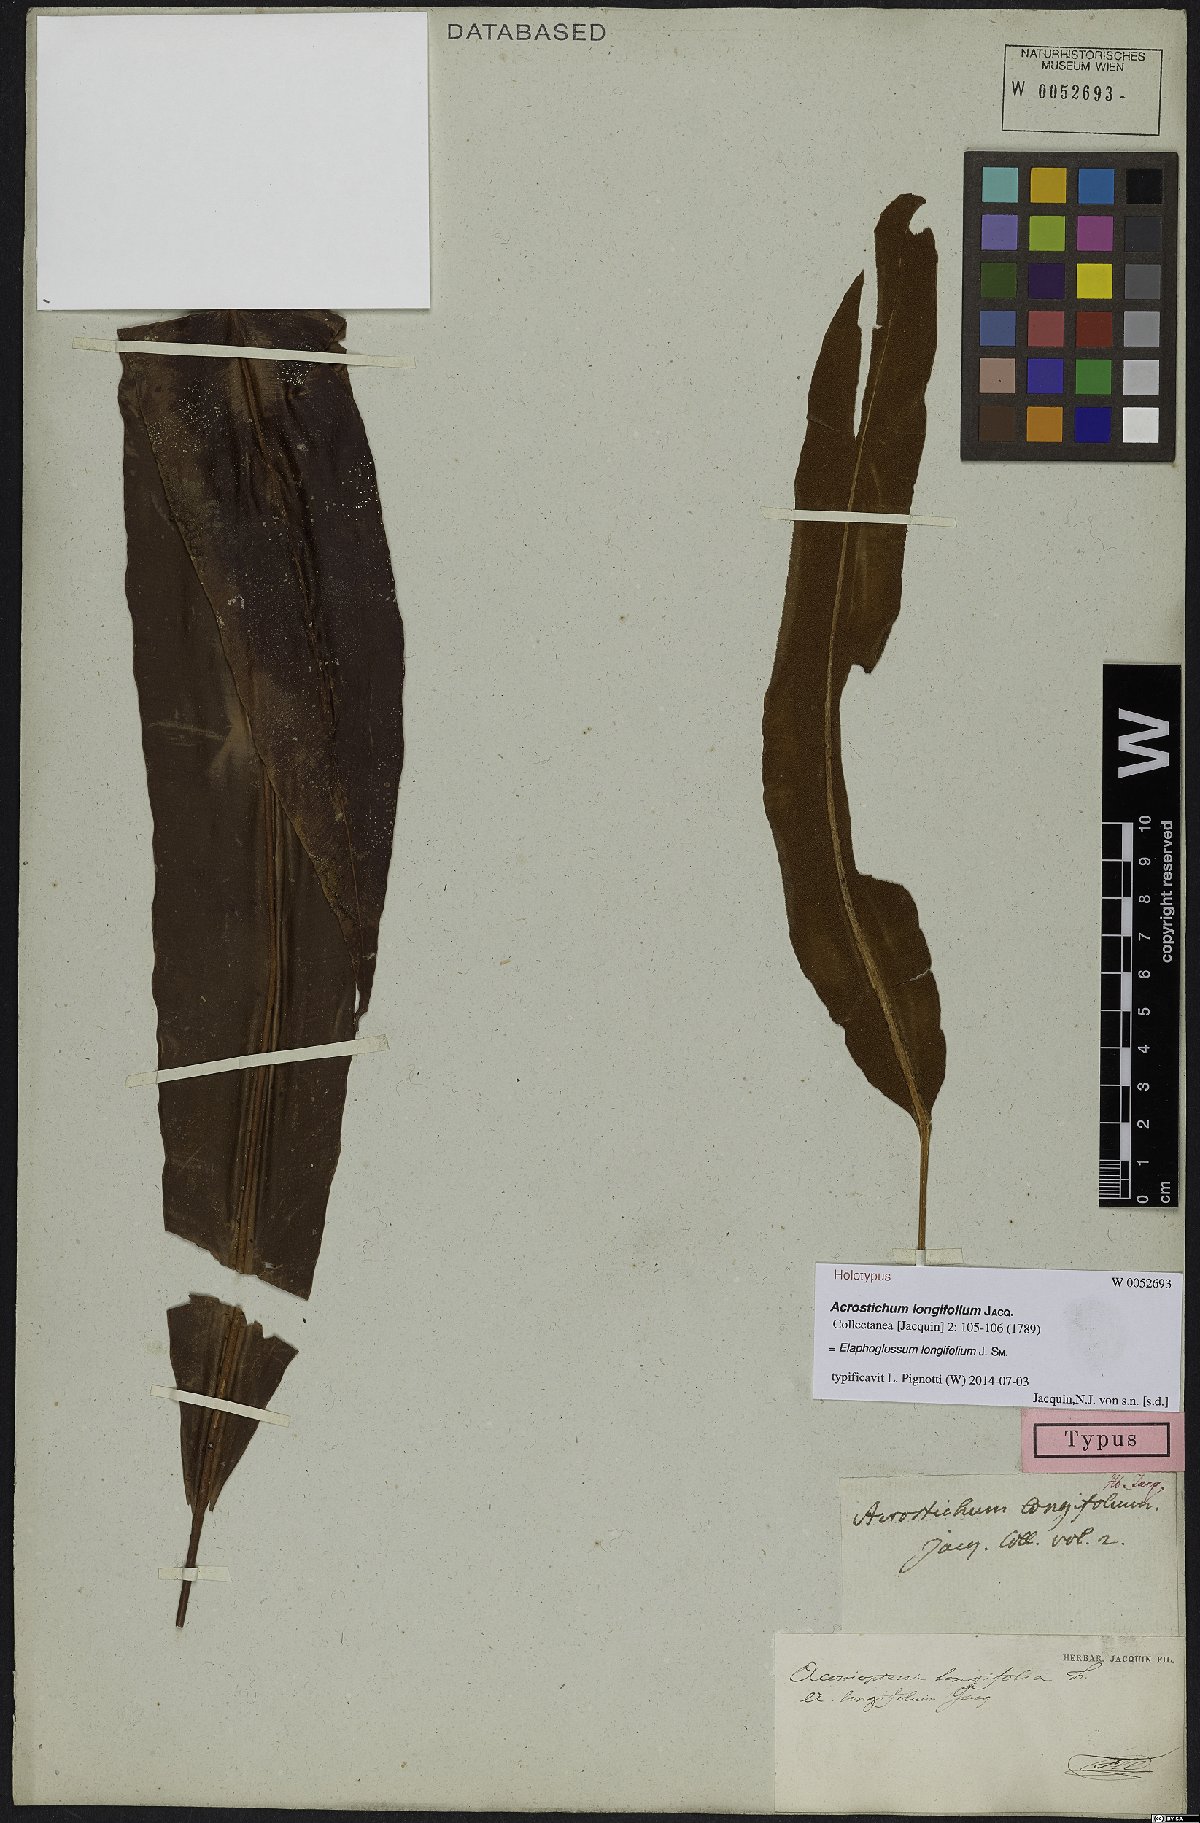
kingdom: Plantae
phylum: Tracheophyta
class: Polypodiopsida
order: Polypodiales
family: Dryopteridaceae
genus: Elaphoglossum
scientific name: Elaphoglossum longifolium
